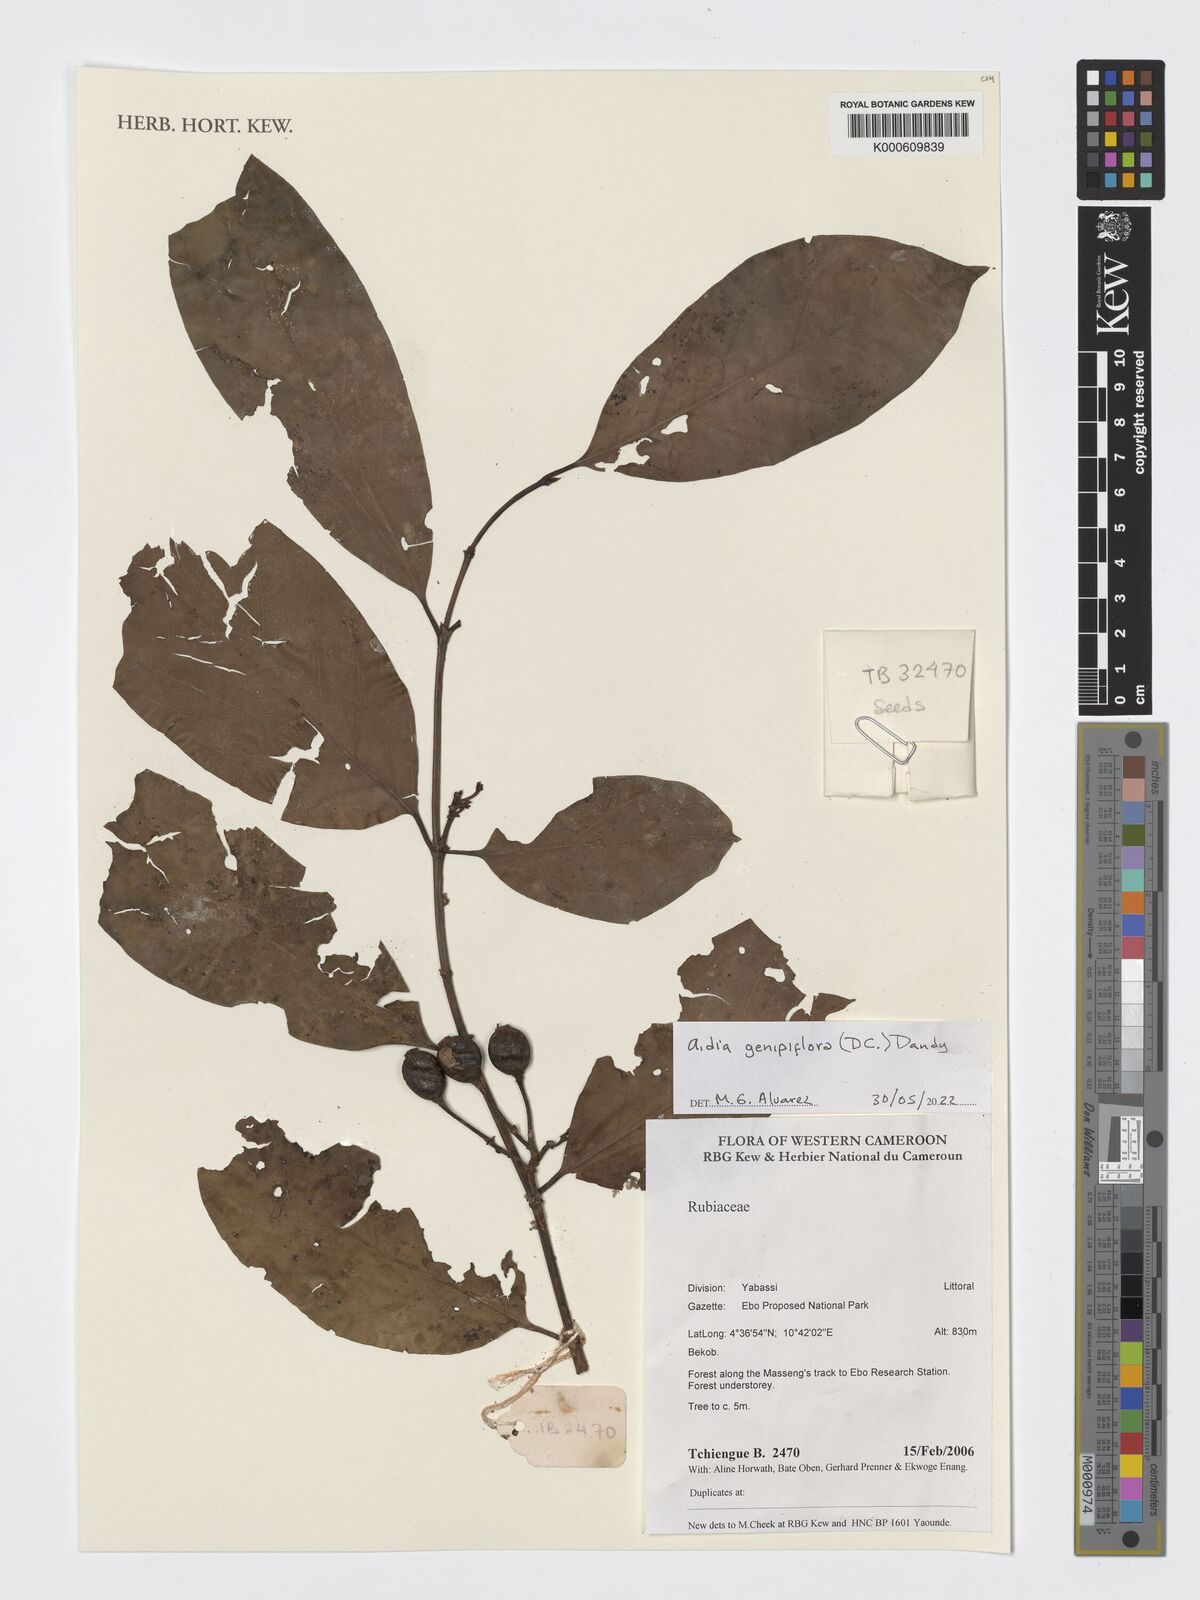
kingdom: Plantae
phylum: Tracheophyta
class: Magnoliopsida
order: Gentianales
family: Rubiaceae
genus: Aidia
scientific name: Aidia genipiflora
